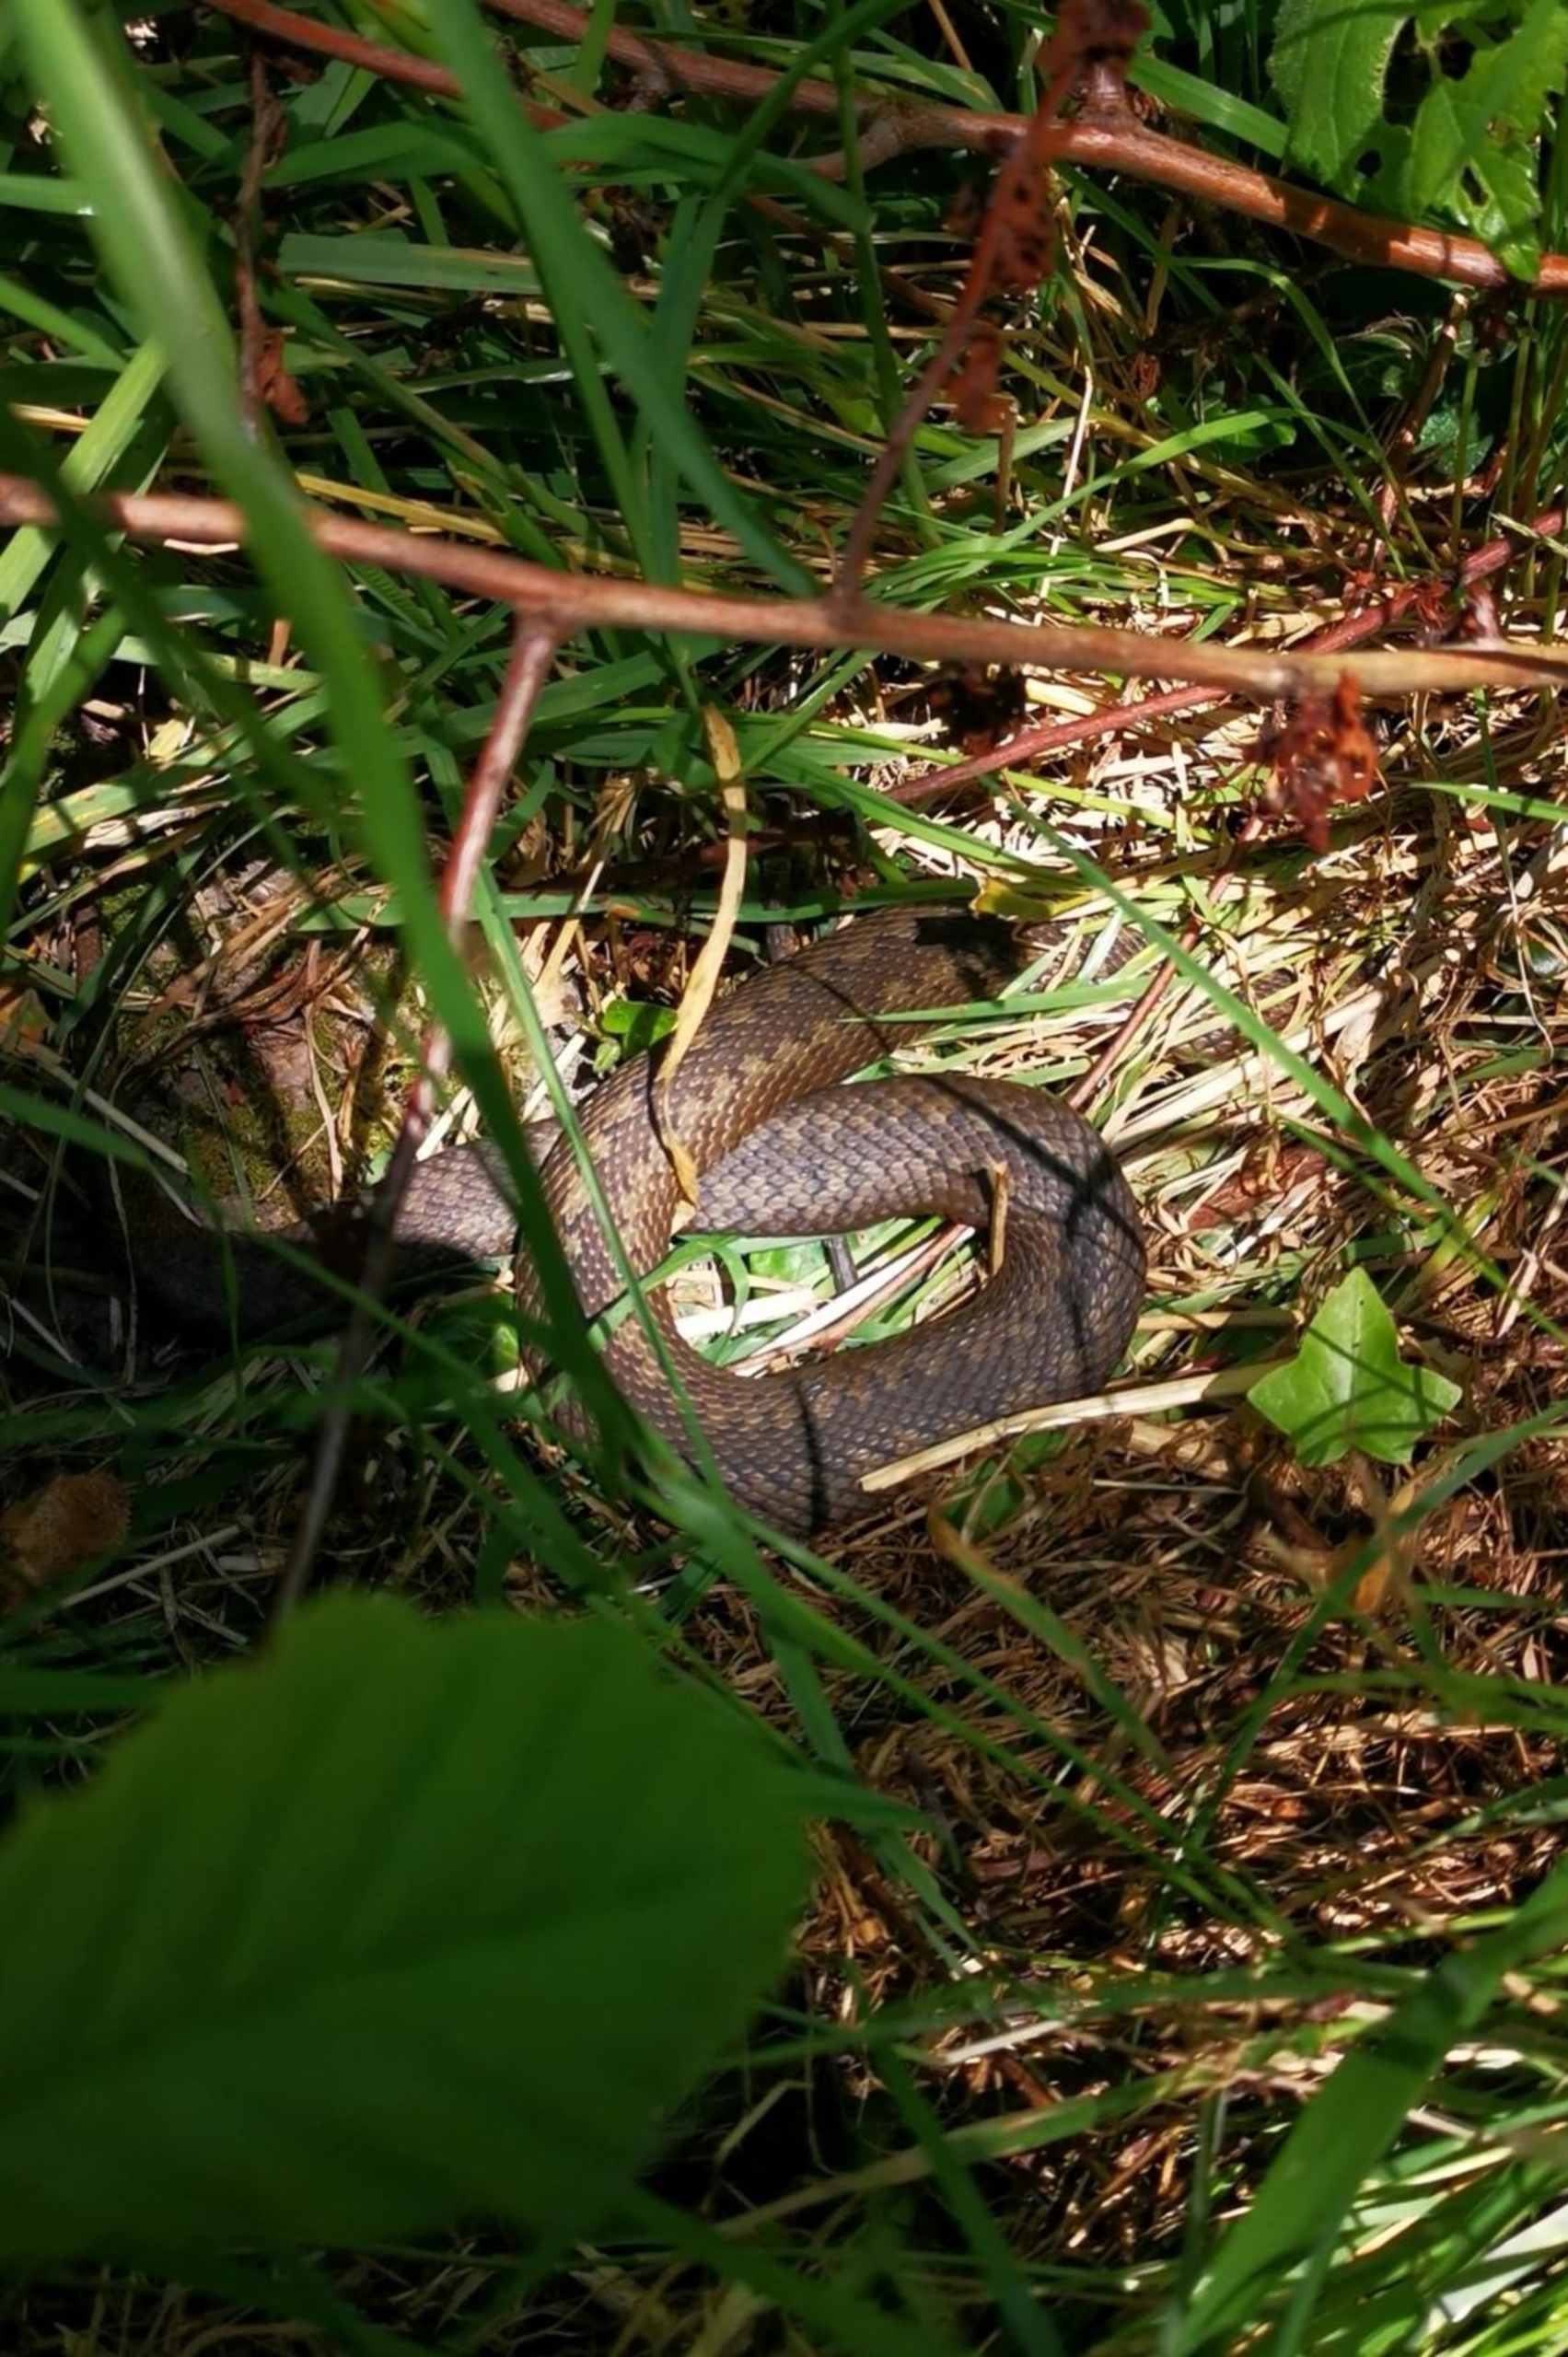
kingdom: Animalia
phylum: Chordata
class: Squamata
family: Viperidae
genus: Vipera
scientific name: Vipera berus
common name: Hugorm
